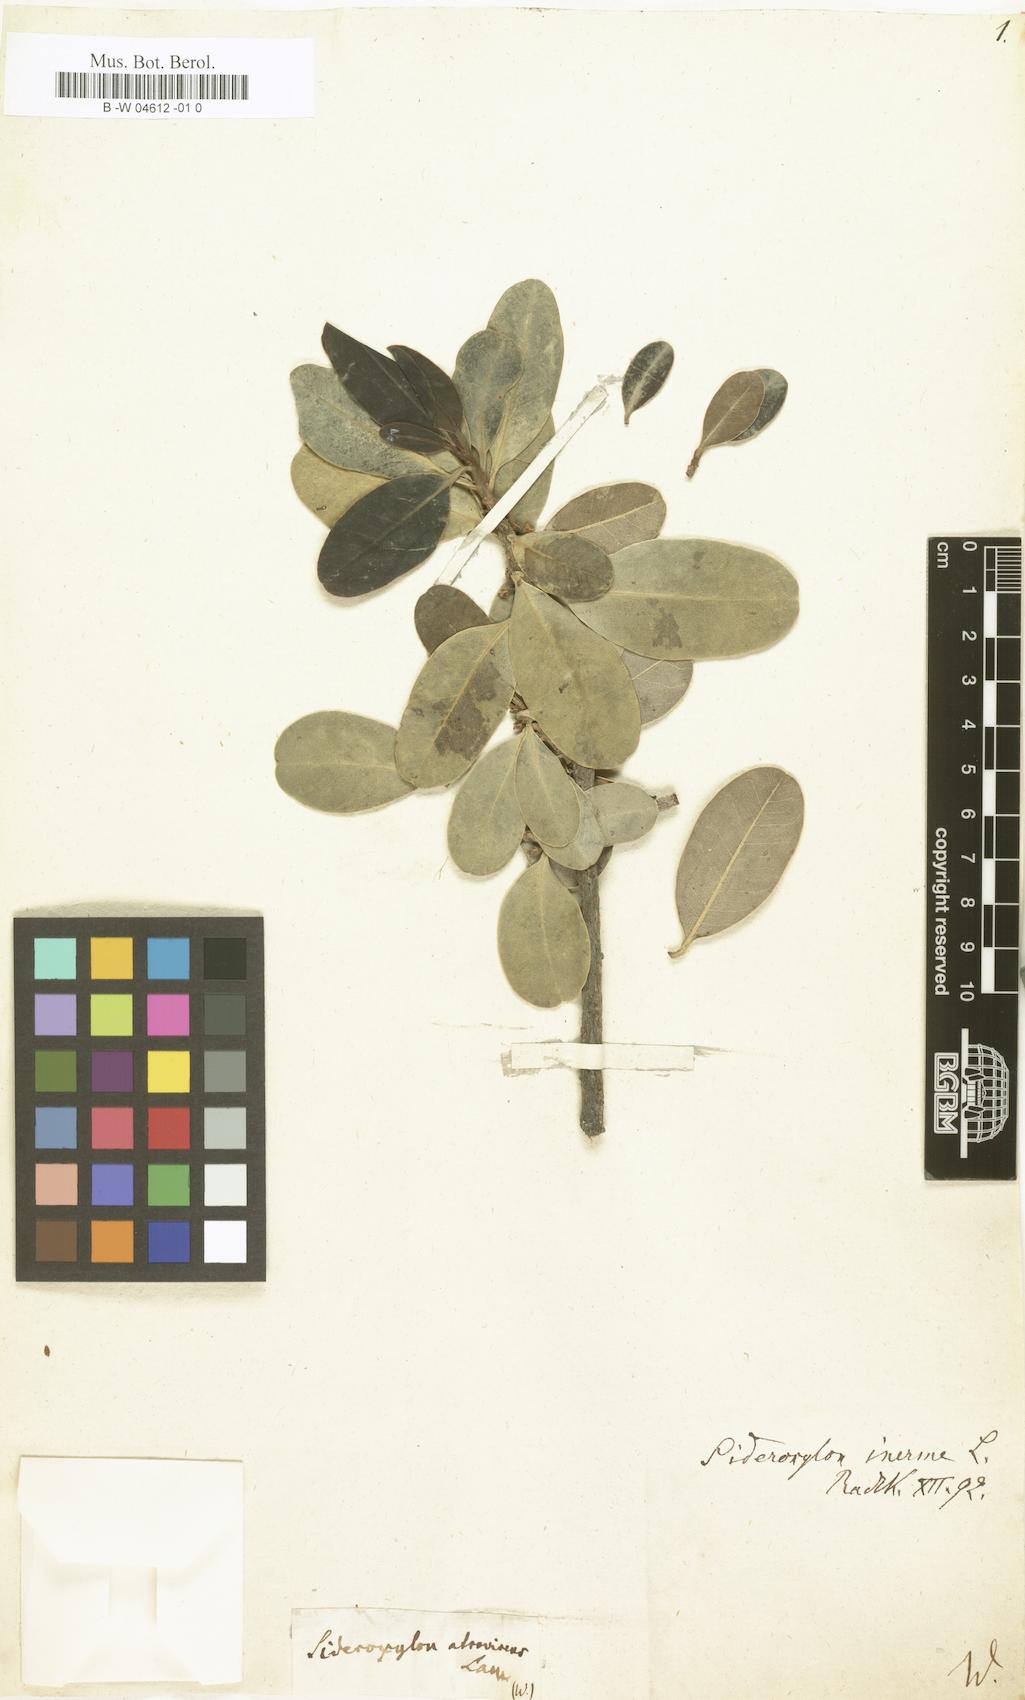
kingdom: Plantae
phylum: Tracheophyta
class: Magnoliopsida
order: Ericales
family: Sapotaceae
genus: Sideroxylon
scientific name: Sideroxylon inerme
